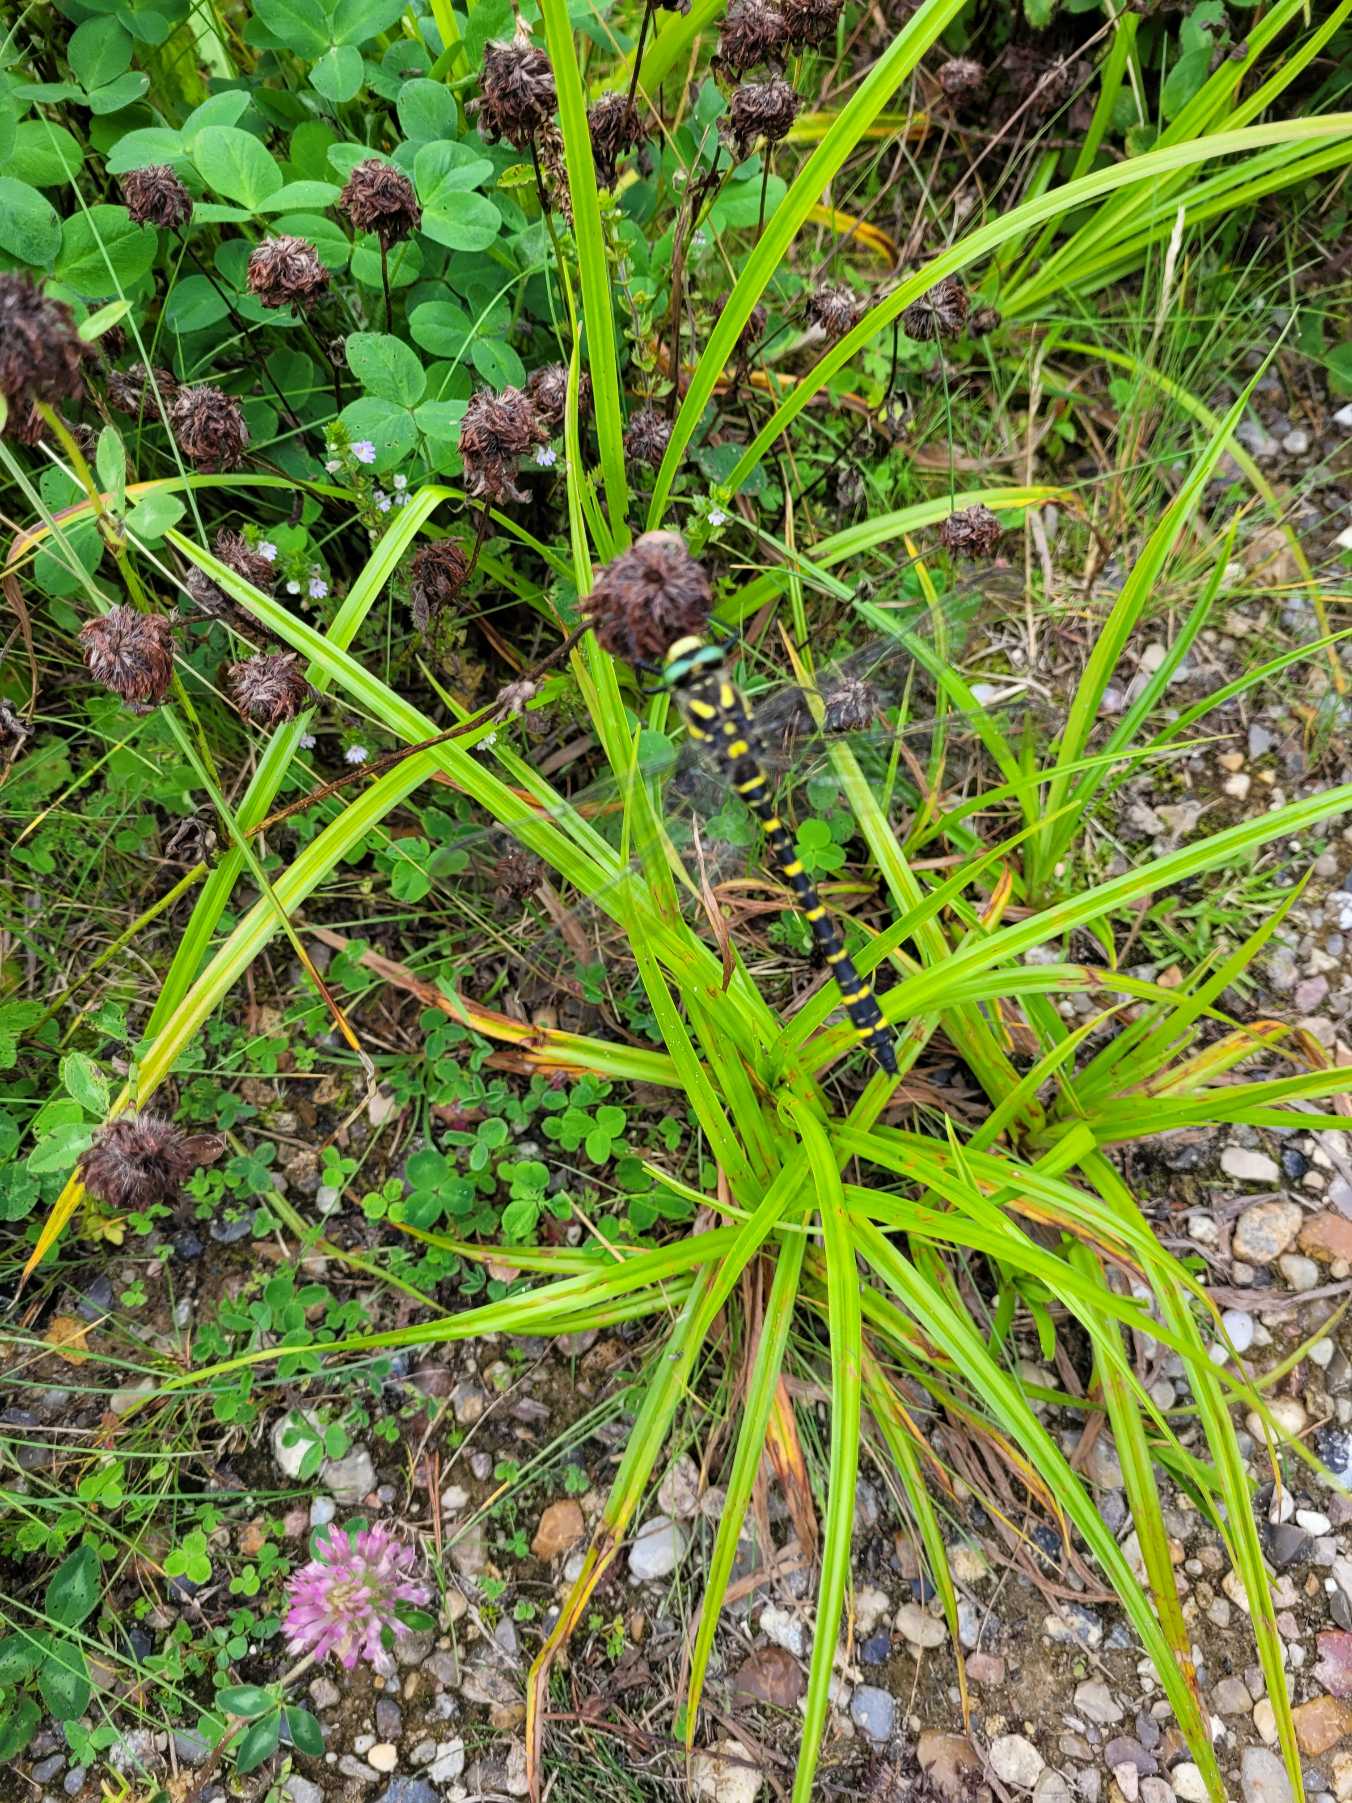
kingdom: Animalia
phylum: Arthropoda
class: Insecta
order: Odonata
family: Cordulegastridae
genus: Cordulegaster
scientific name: Cordulegaster boltonii
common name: Kongeguldsmed
